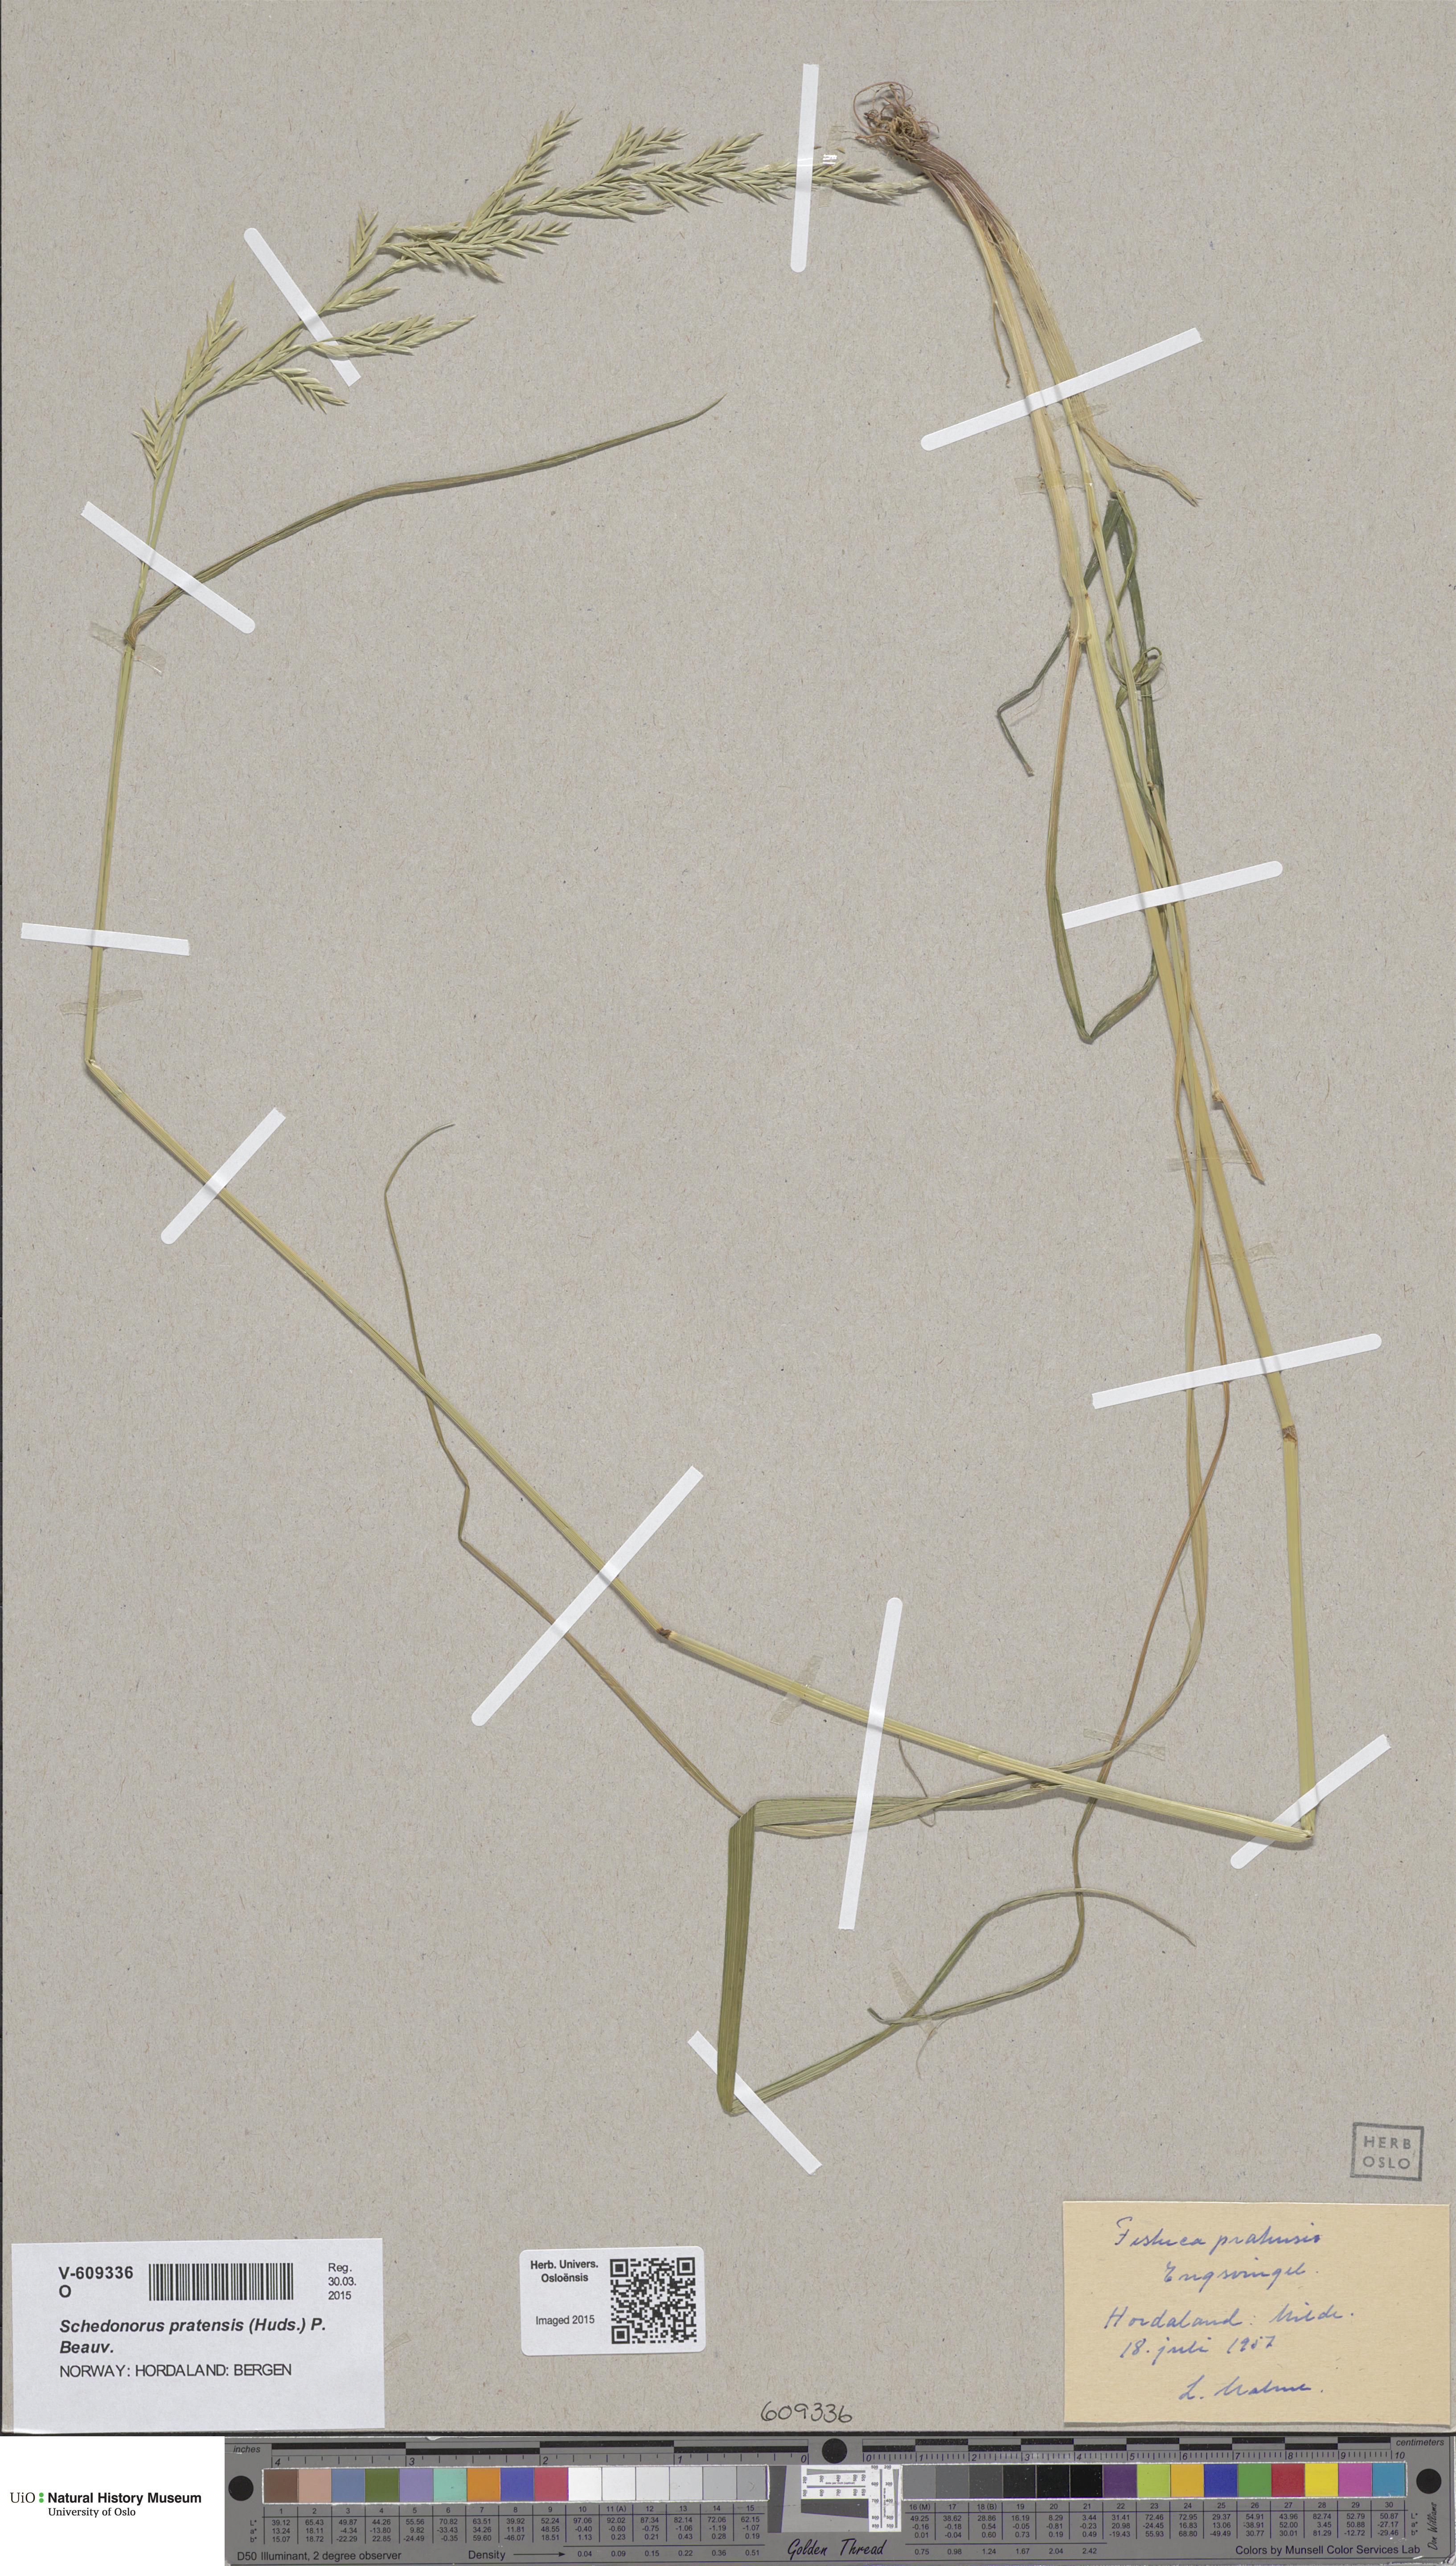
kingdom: Plantae
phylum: Tracheophyta
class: Liliopsida
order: Poales
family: Poaceae
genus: Lolium
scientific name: Lolium pratense
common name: Dover grass
